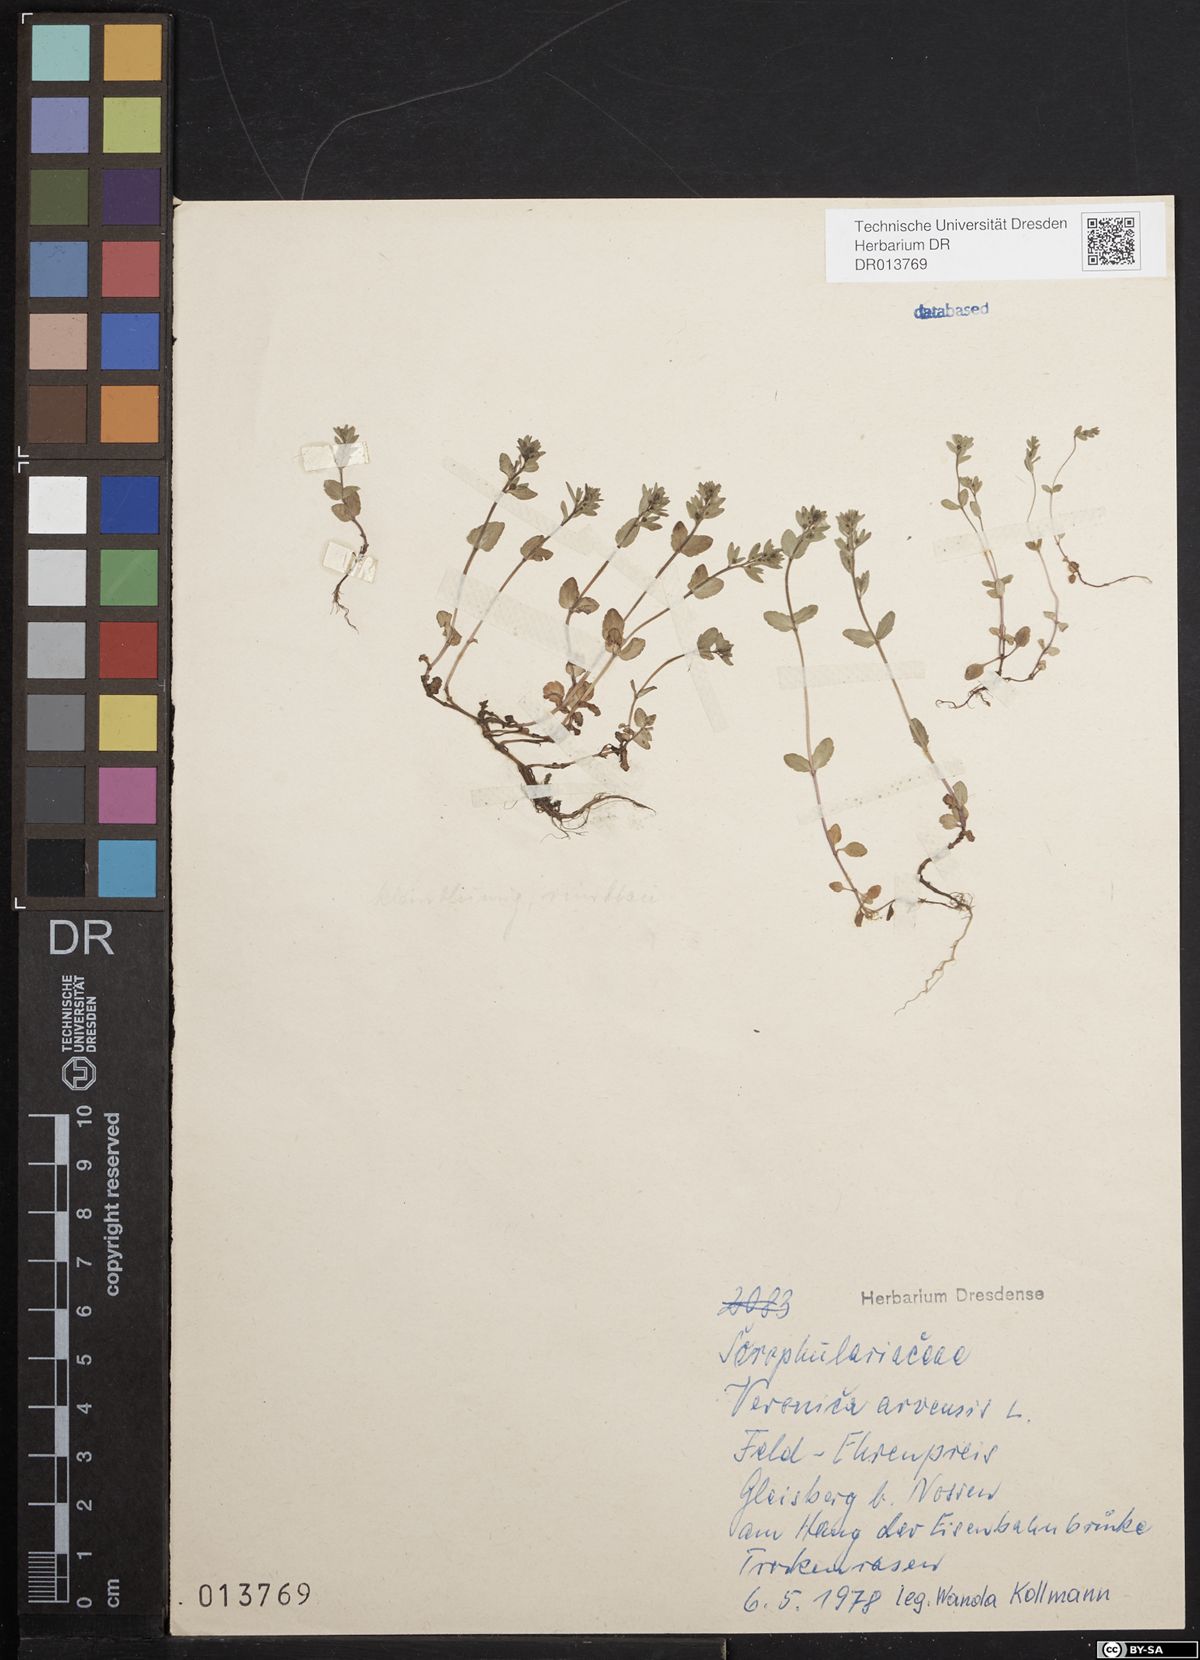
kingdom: Plantae
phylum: Tracheophyta
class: Magnoliopsida
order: Lamiales
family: Plantaginaceae
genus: Veronica
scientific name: Veronica arvensis
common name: Corn speedwell
